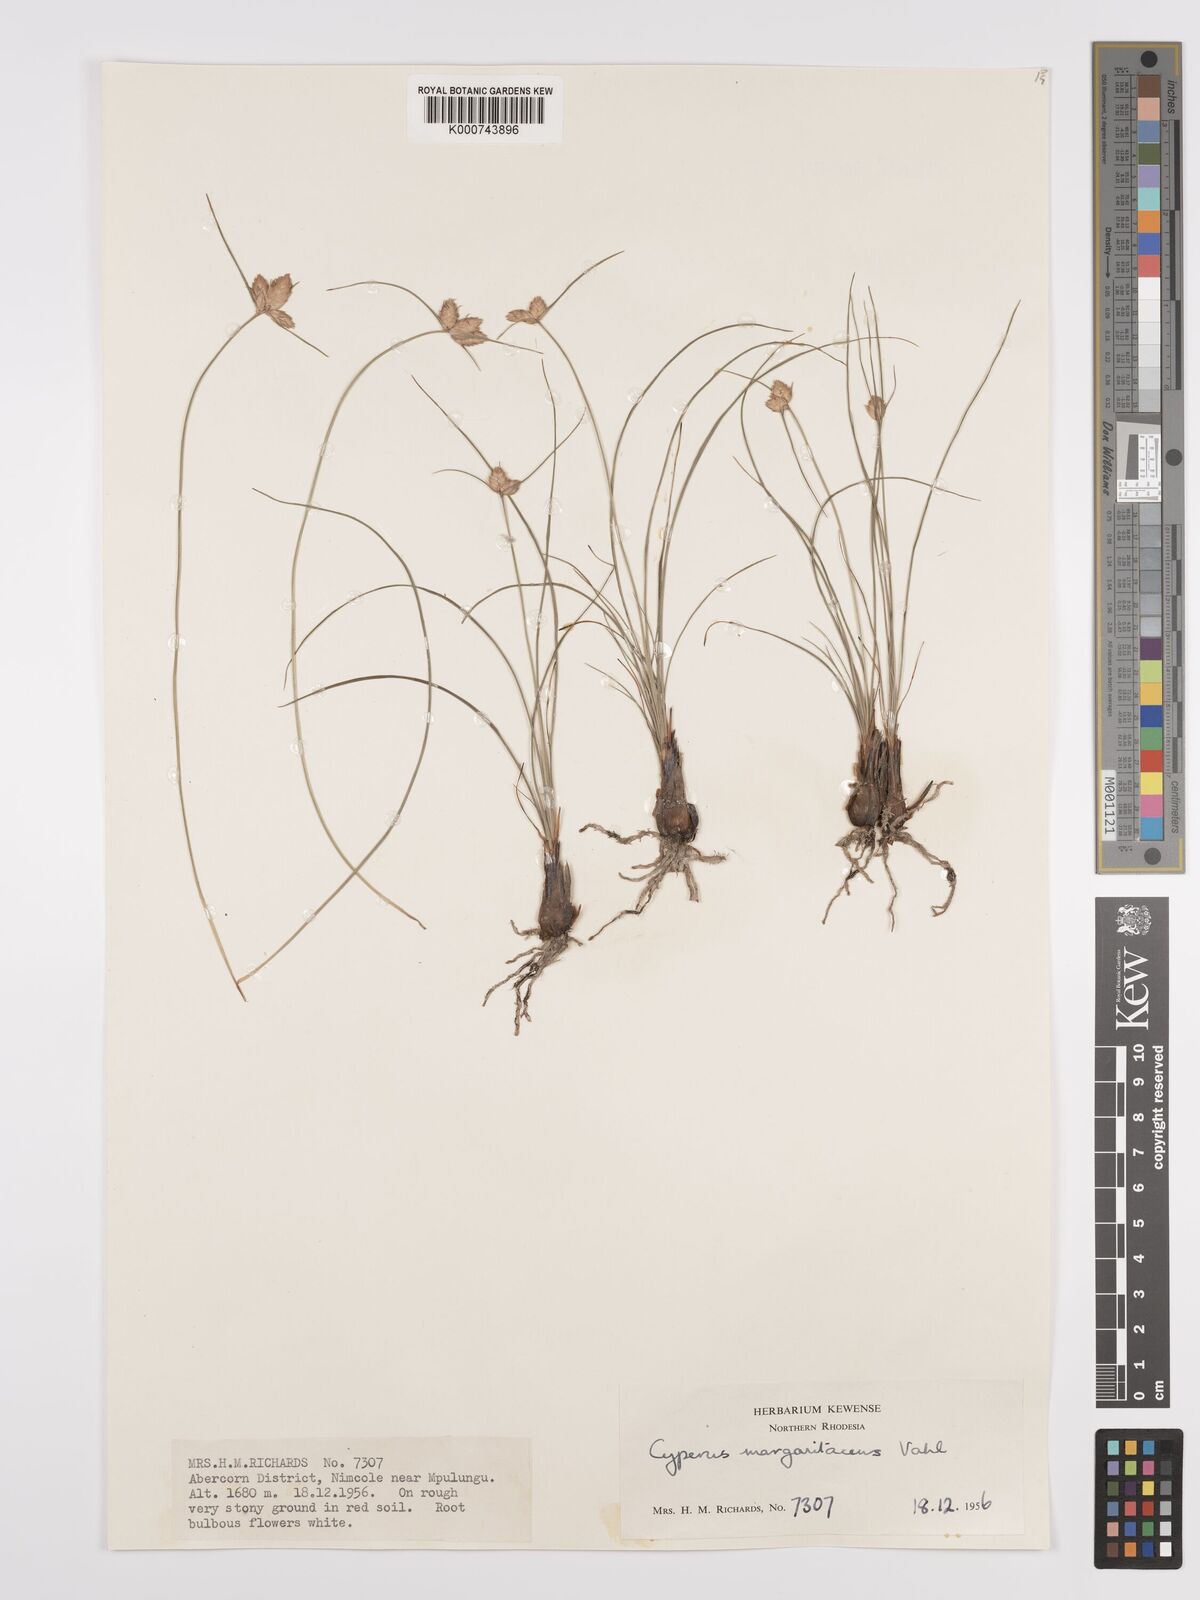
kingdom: Plantae
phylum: Tracheophyta
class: Liliopsida
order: Poales
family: Cyperaceae
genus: Cyperus
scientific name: Cyperus margaritaceus
